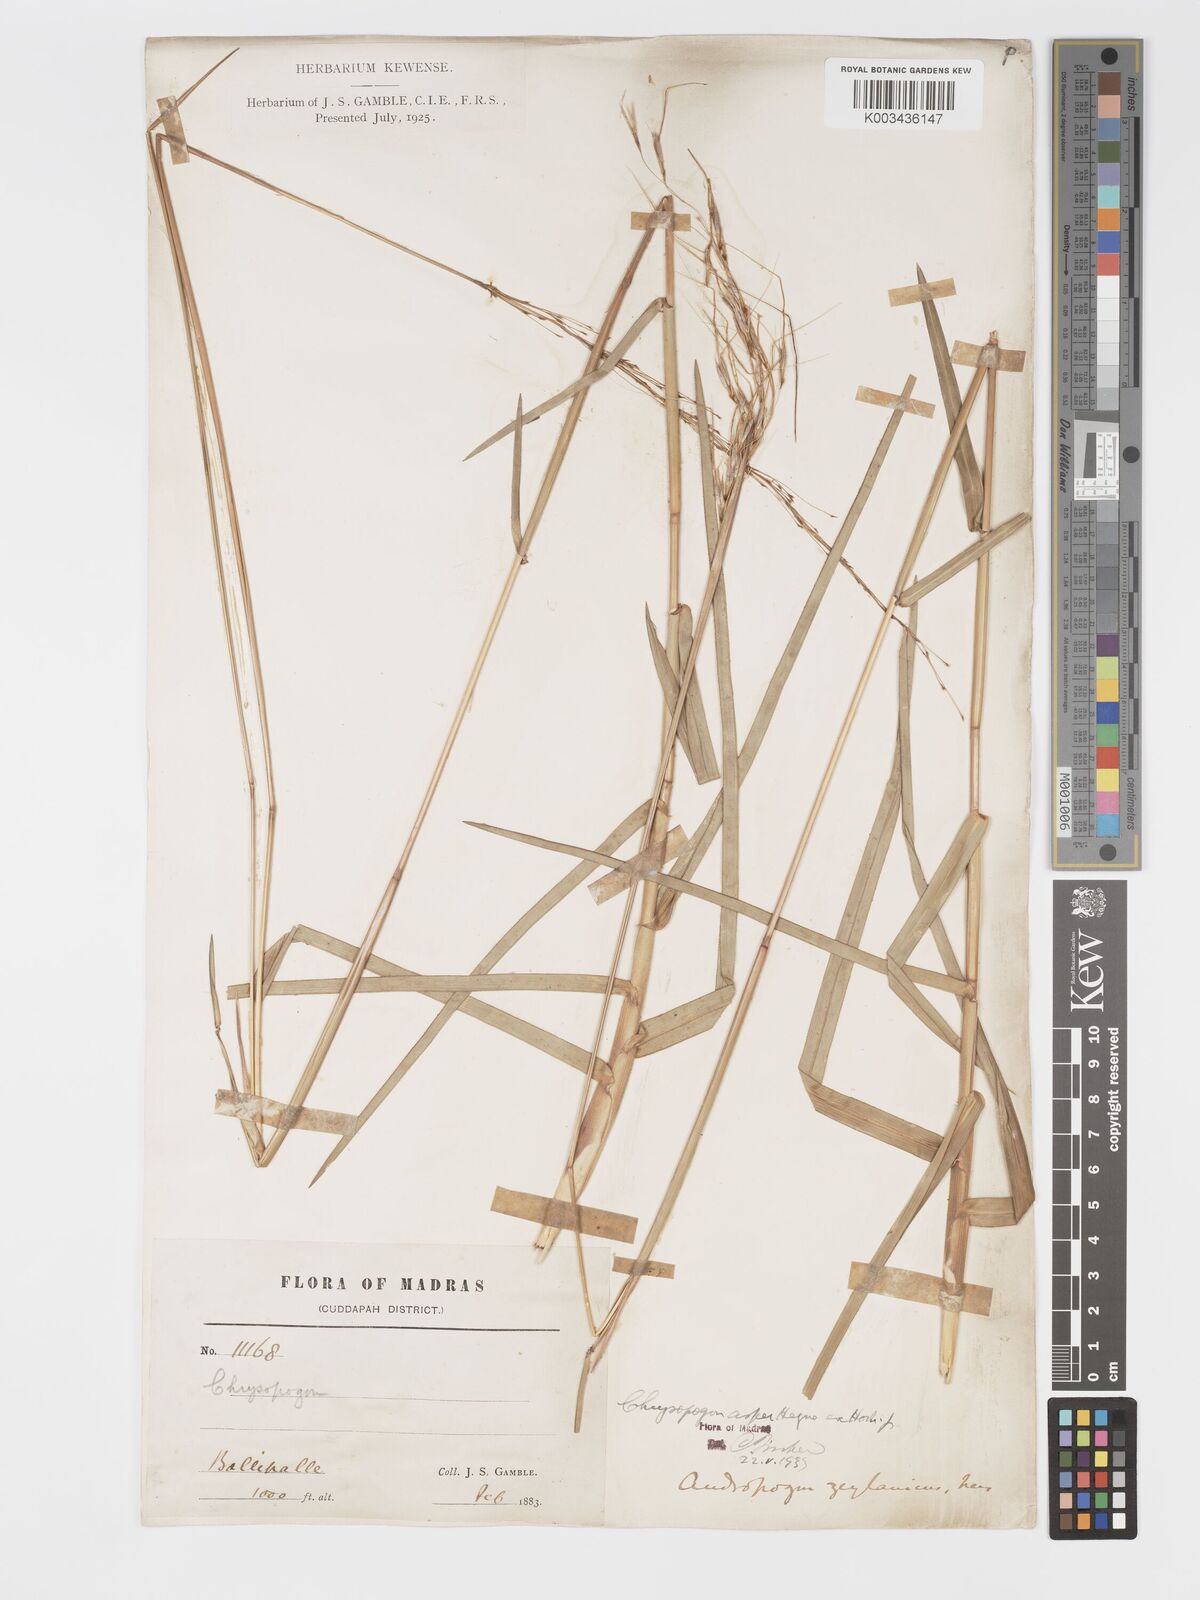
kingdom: Plantae
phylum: Tracheophyta
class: Liliopsida
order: Poales
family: Poaceae
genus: Chrysopogon
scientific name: Chrysopogon asper
